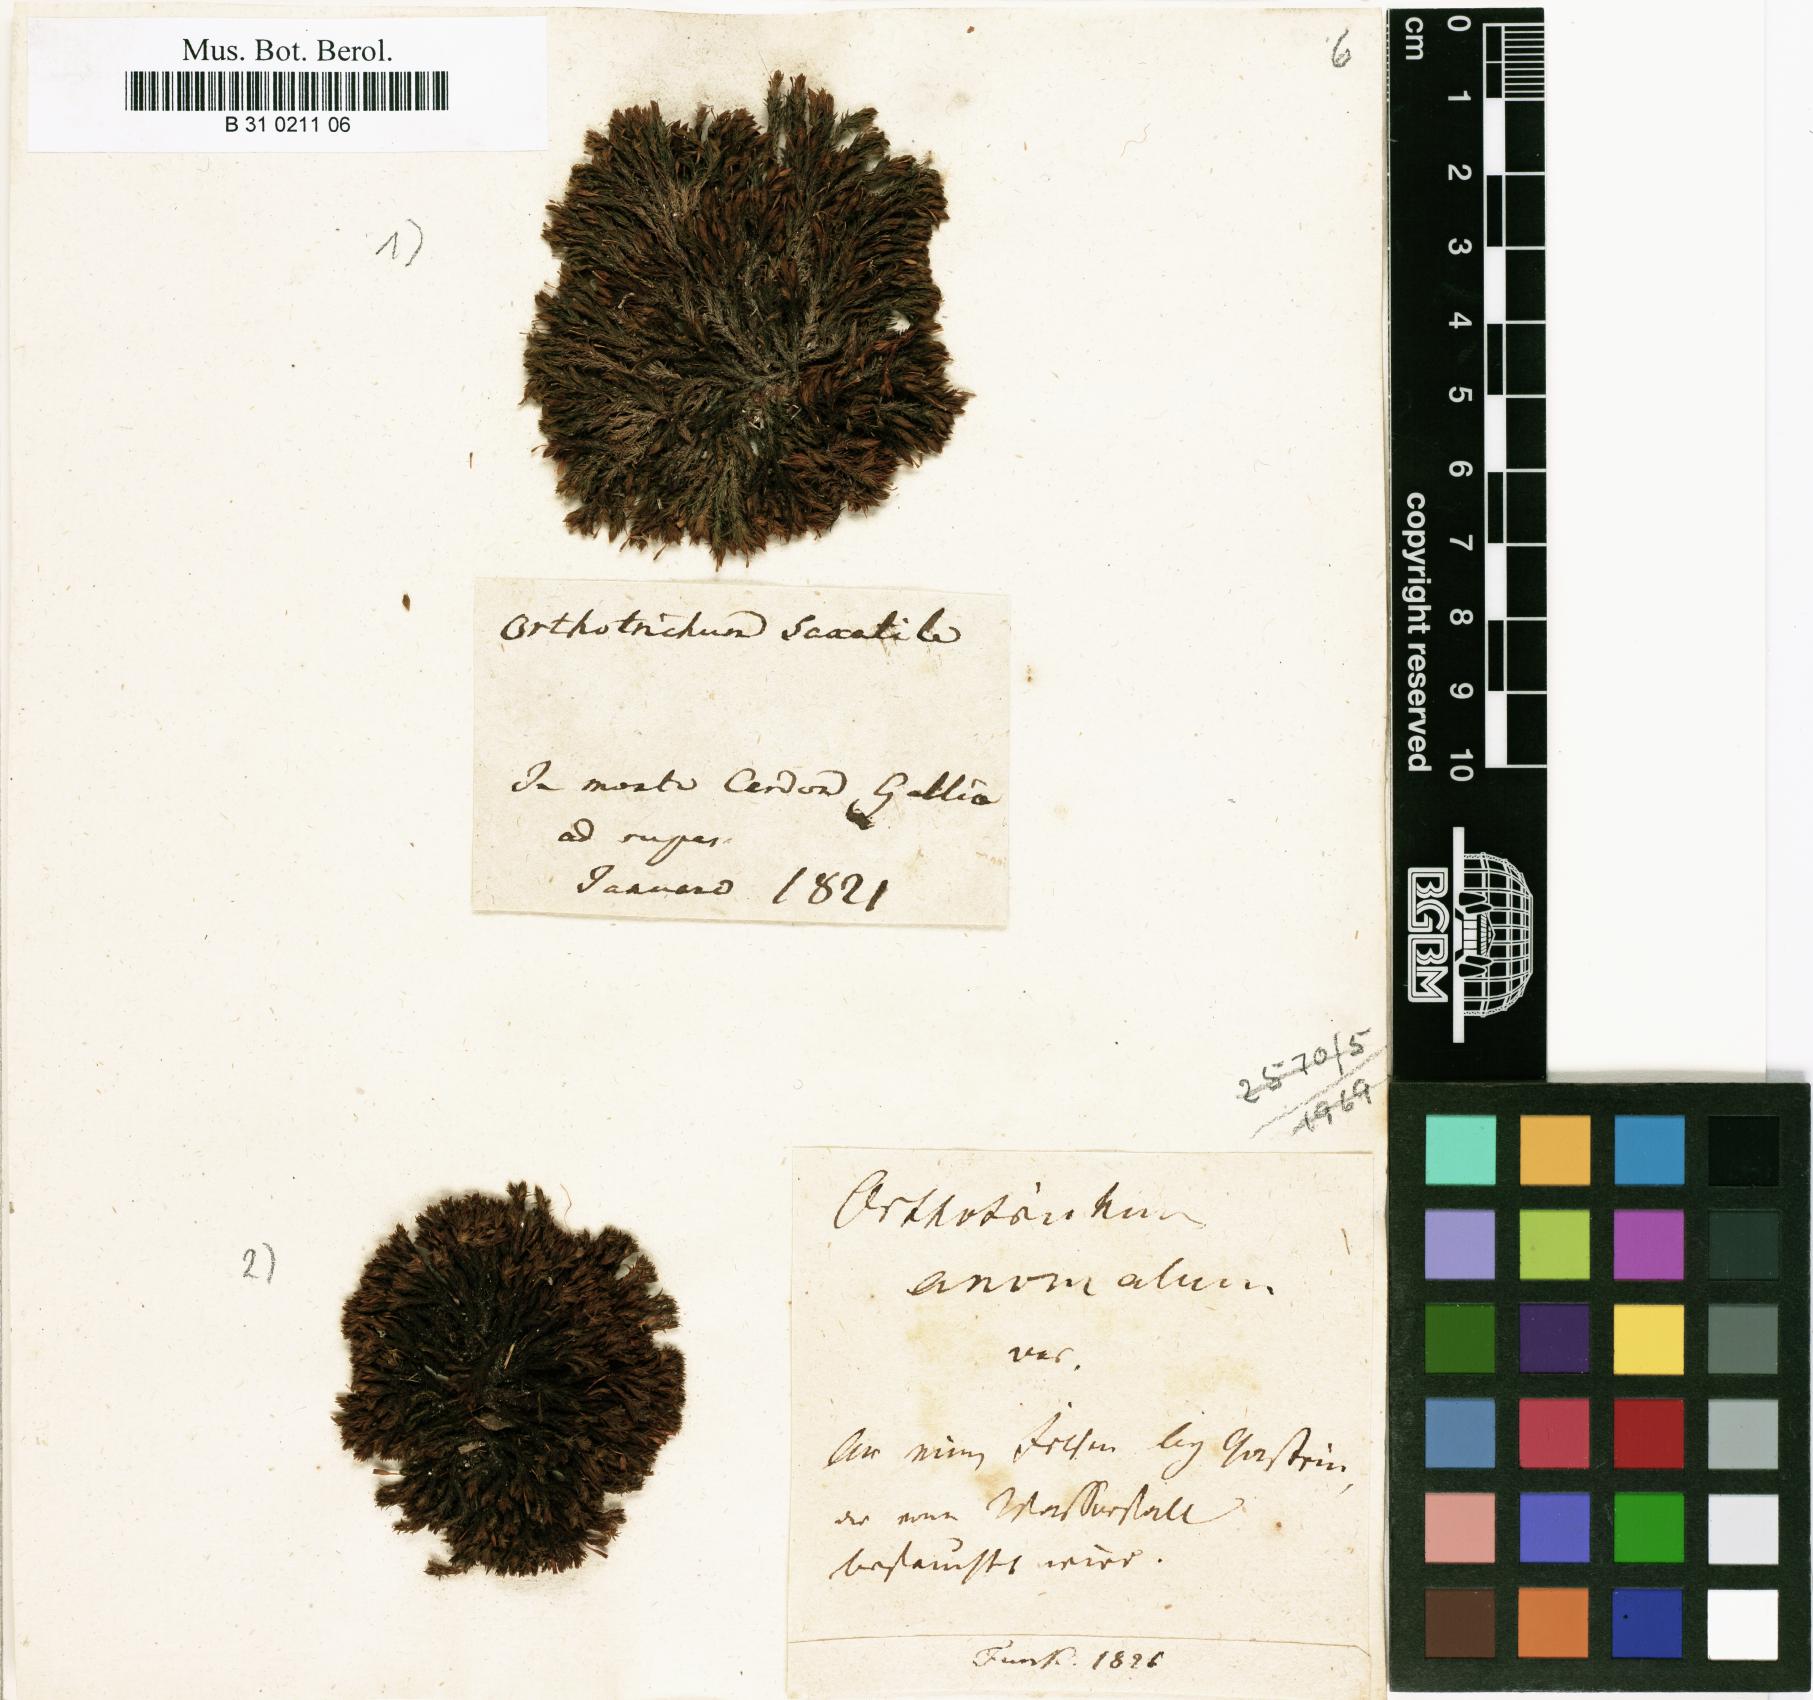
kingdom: Plantae
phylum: Bryophyta
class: Bryopsida
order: Orthotrichales
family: Orthotrichaceae
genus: Orthotrichum
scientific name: Orthotrichum anomalum
